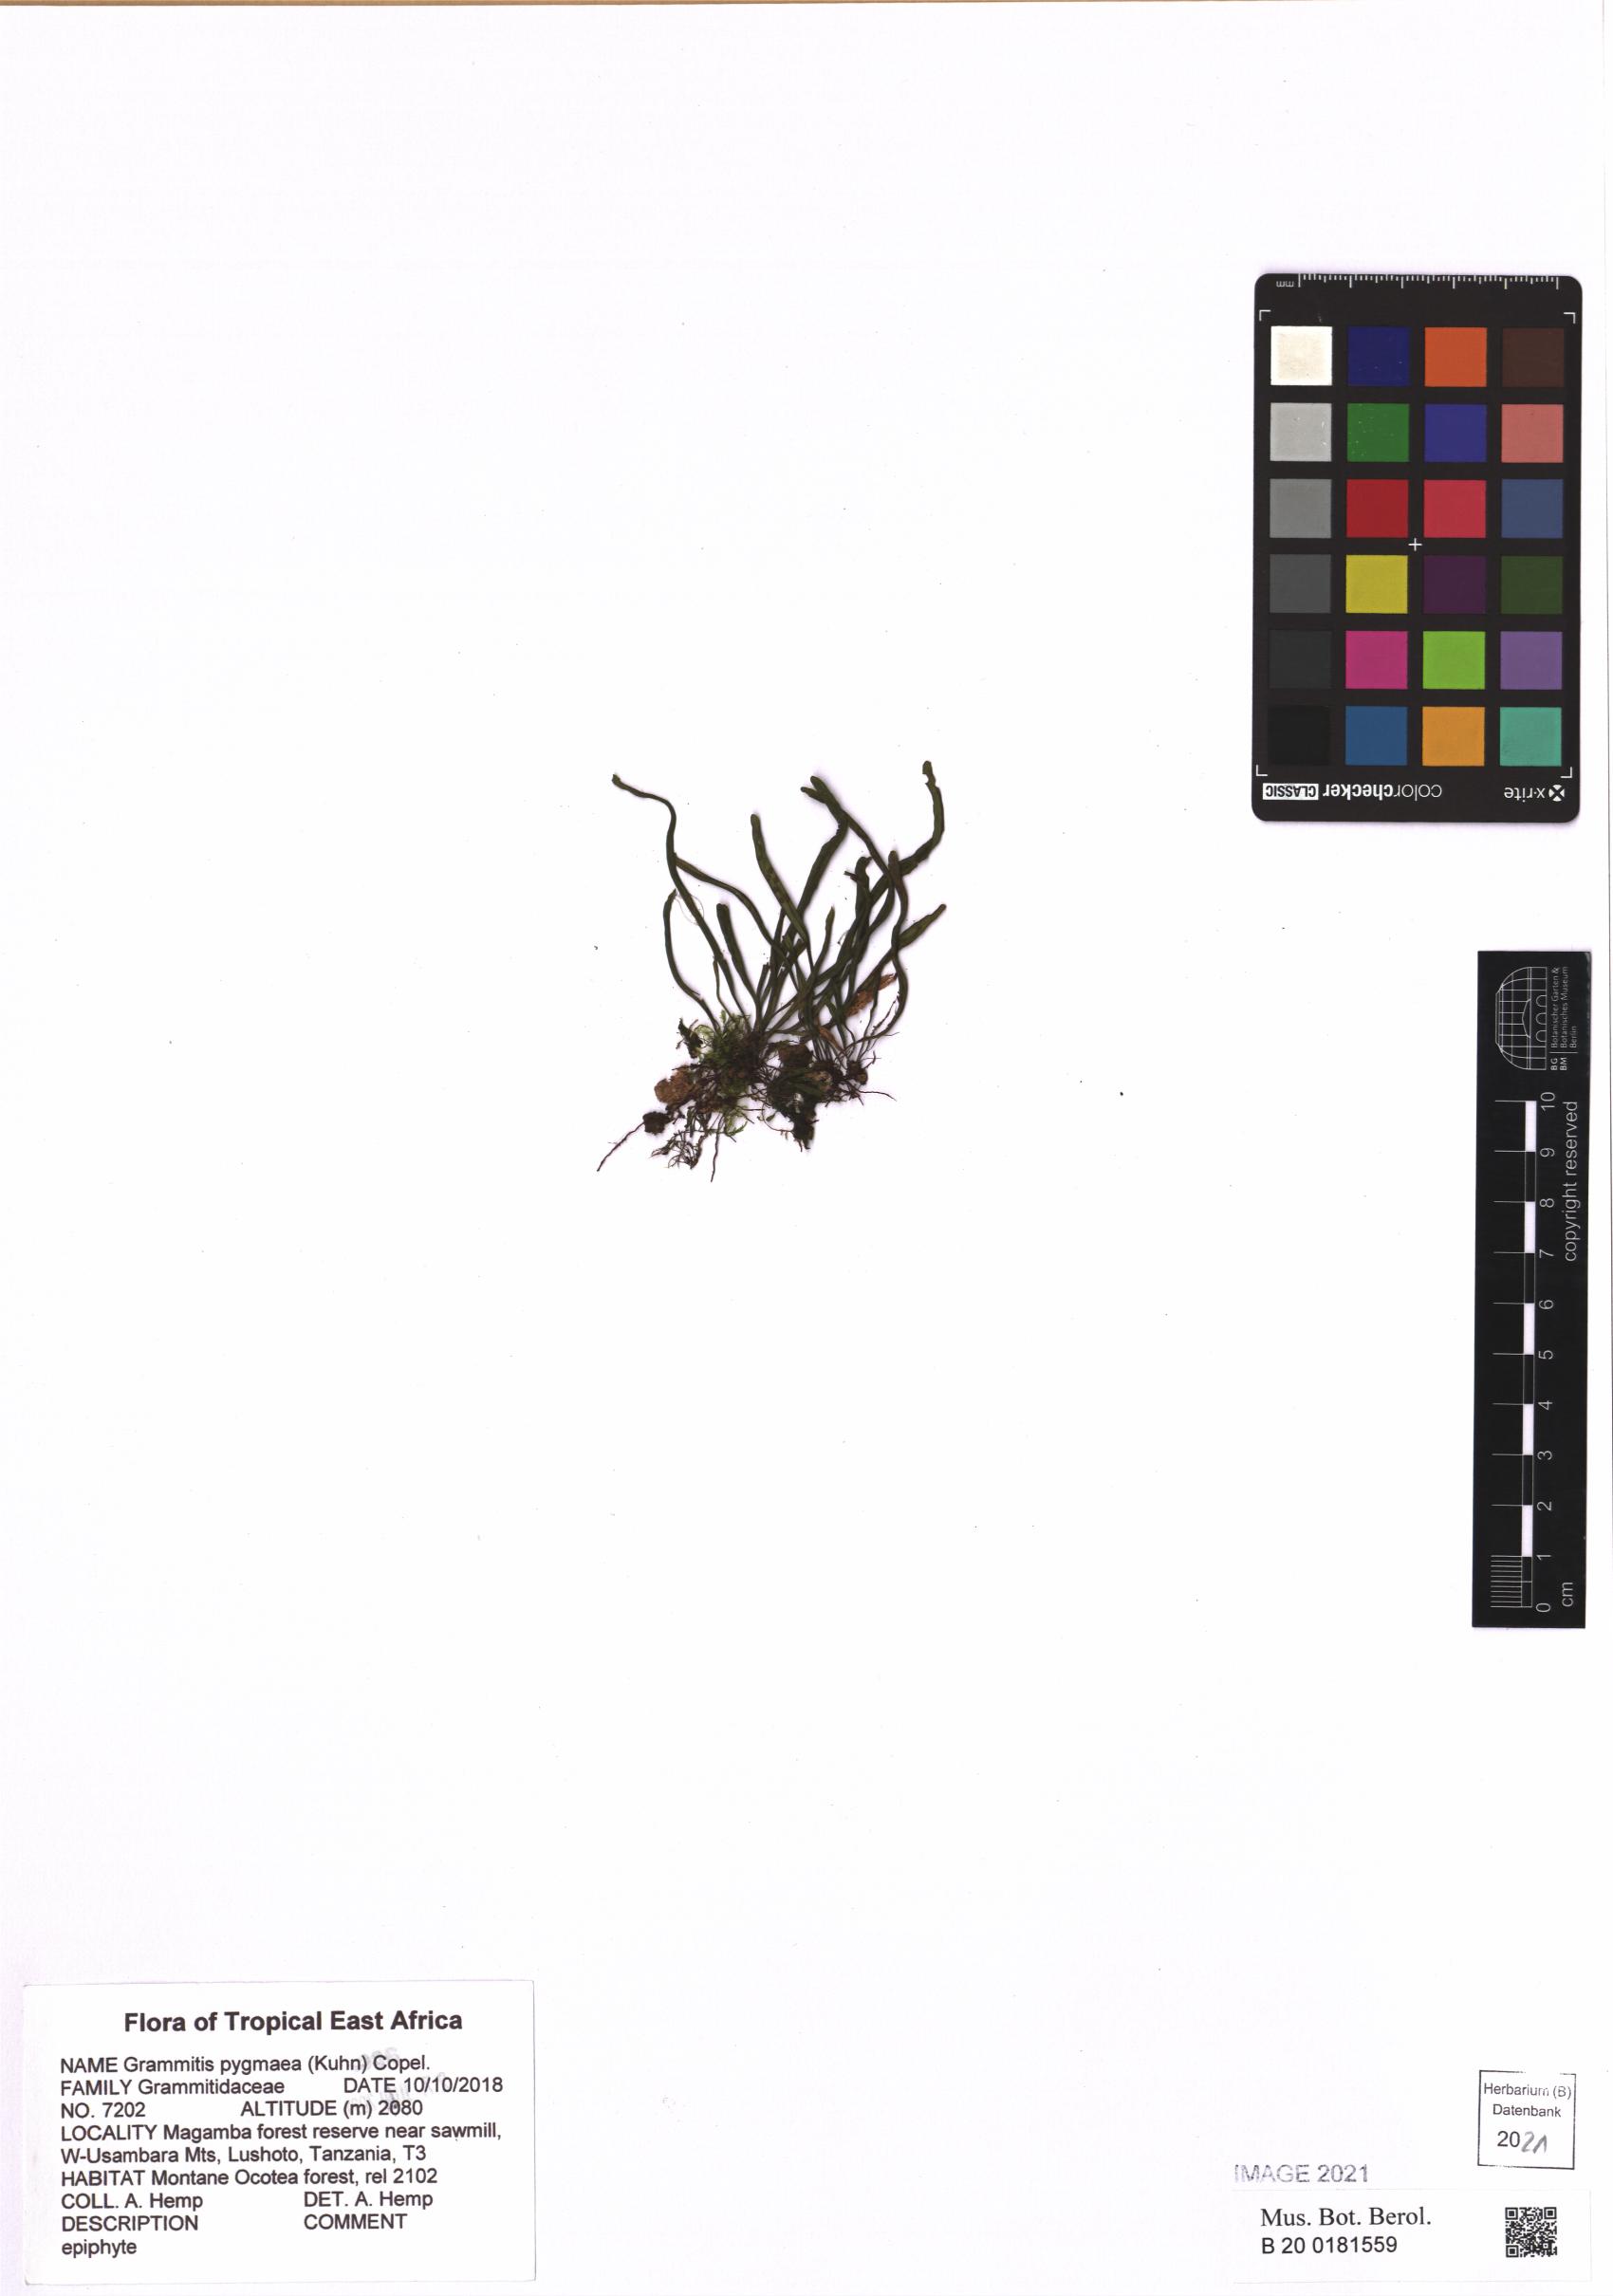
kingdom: Plantae
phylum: Tracheophyta
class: Polypodiopsida
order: Polypodiales
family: Polypodiaceae
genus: Grammitis
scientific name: Grammitis pygmaea
